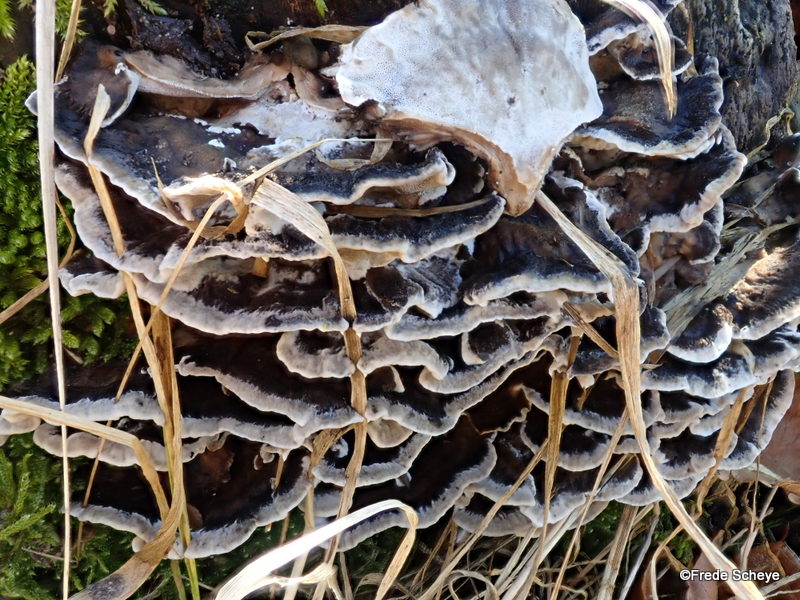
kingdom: Fungi
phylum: Basidiomycota
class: Agaricomycetes
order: Polyporales
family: Phanerochaetaceae
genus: Bjerkandera
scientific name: Bjerkandera adusta
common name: sveden sodporesvamp
